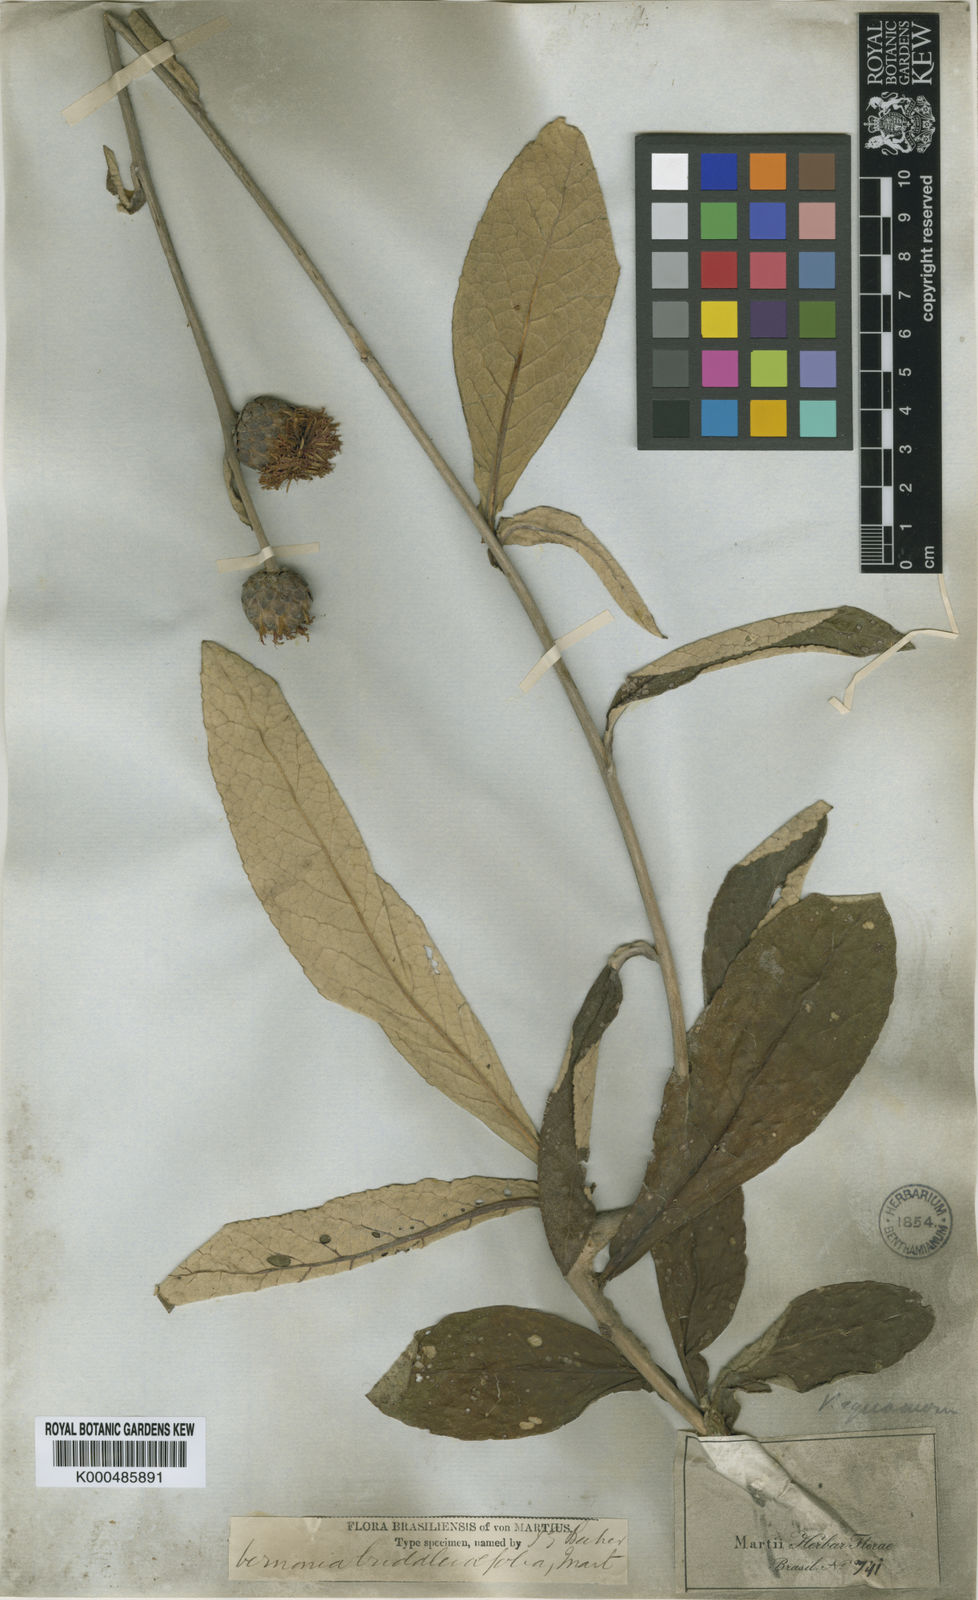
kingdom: Plantae
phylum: Tracheophyta
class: Magnoliopsida
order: Asterales
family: Asteraceae
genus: Vernonia
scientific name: Vernonia
